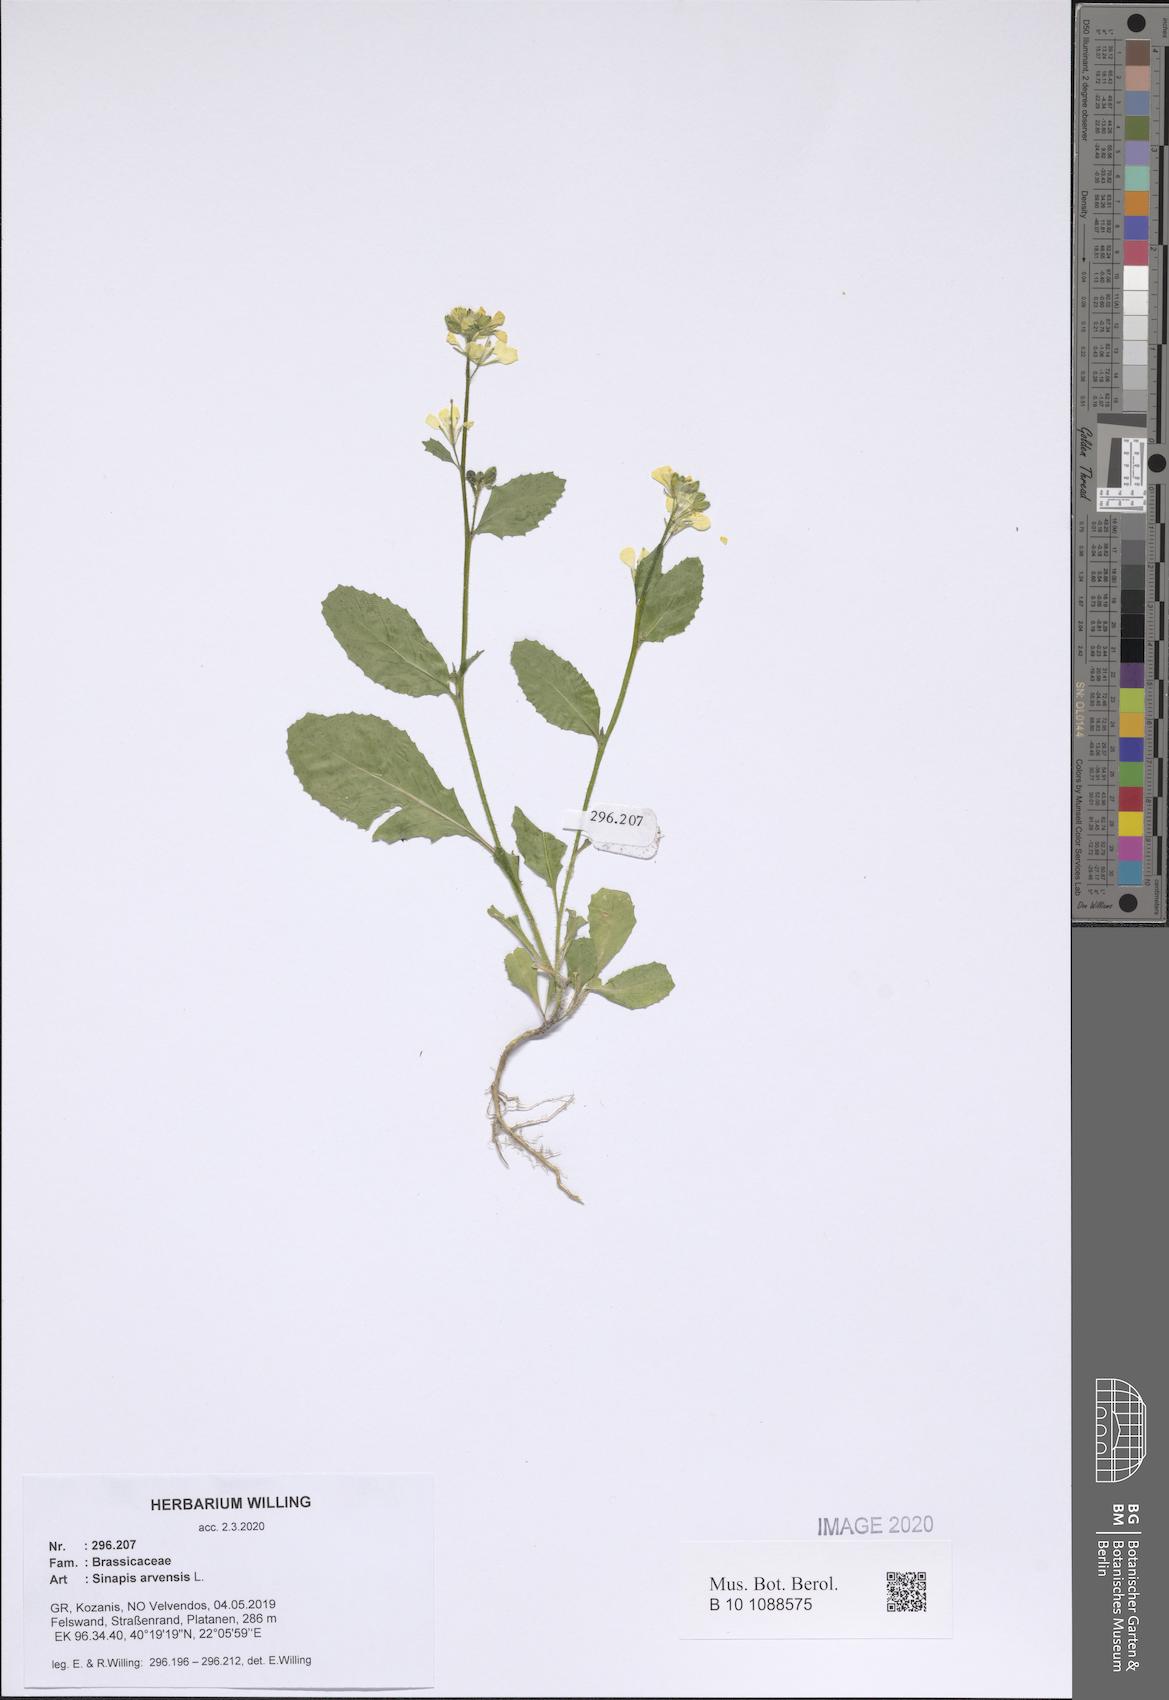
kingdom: Plantae
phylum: Tracheophyta
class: Magnoliopsida
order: Brassicales
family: Brassicaceae
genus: Sinapis
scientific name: Sinapis arvensis
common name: Charlock
